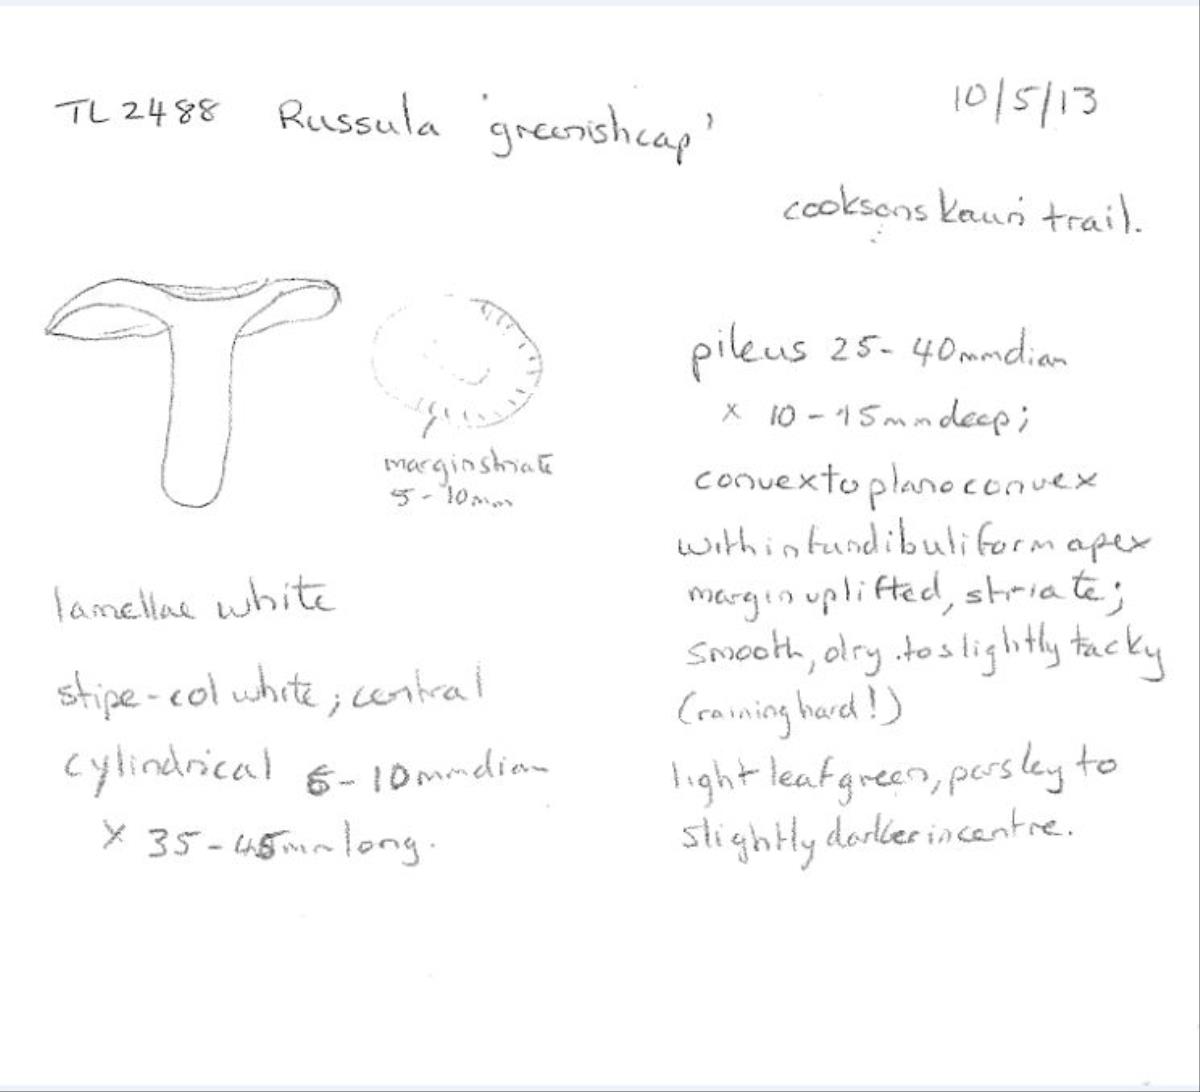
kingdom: Fungi
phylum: Basidiomycota
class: Agaricomycetes
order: Russulales
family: Russulaceae
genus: Russula
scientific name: Russula
